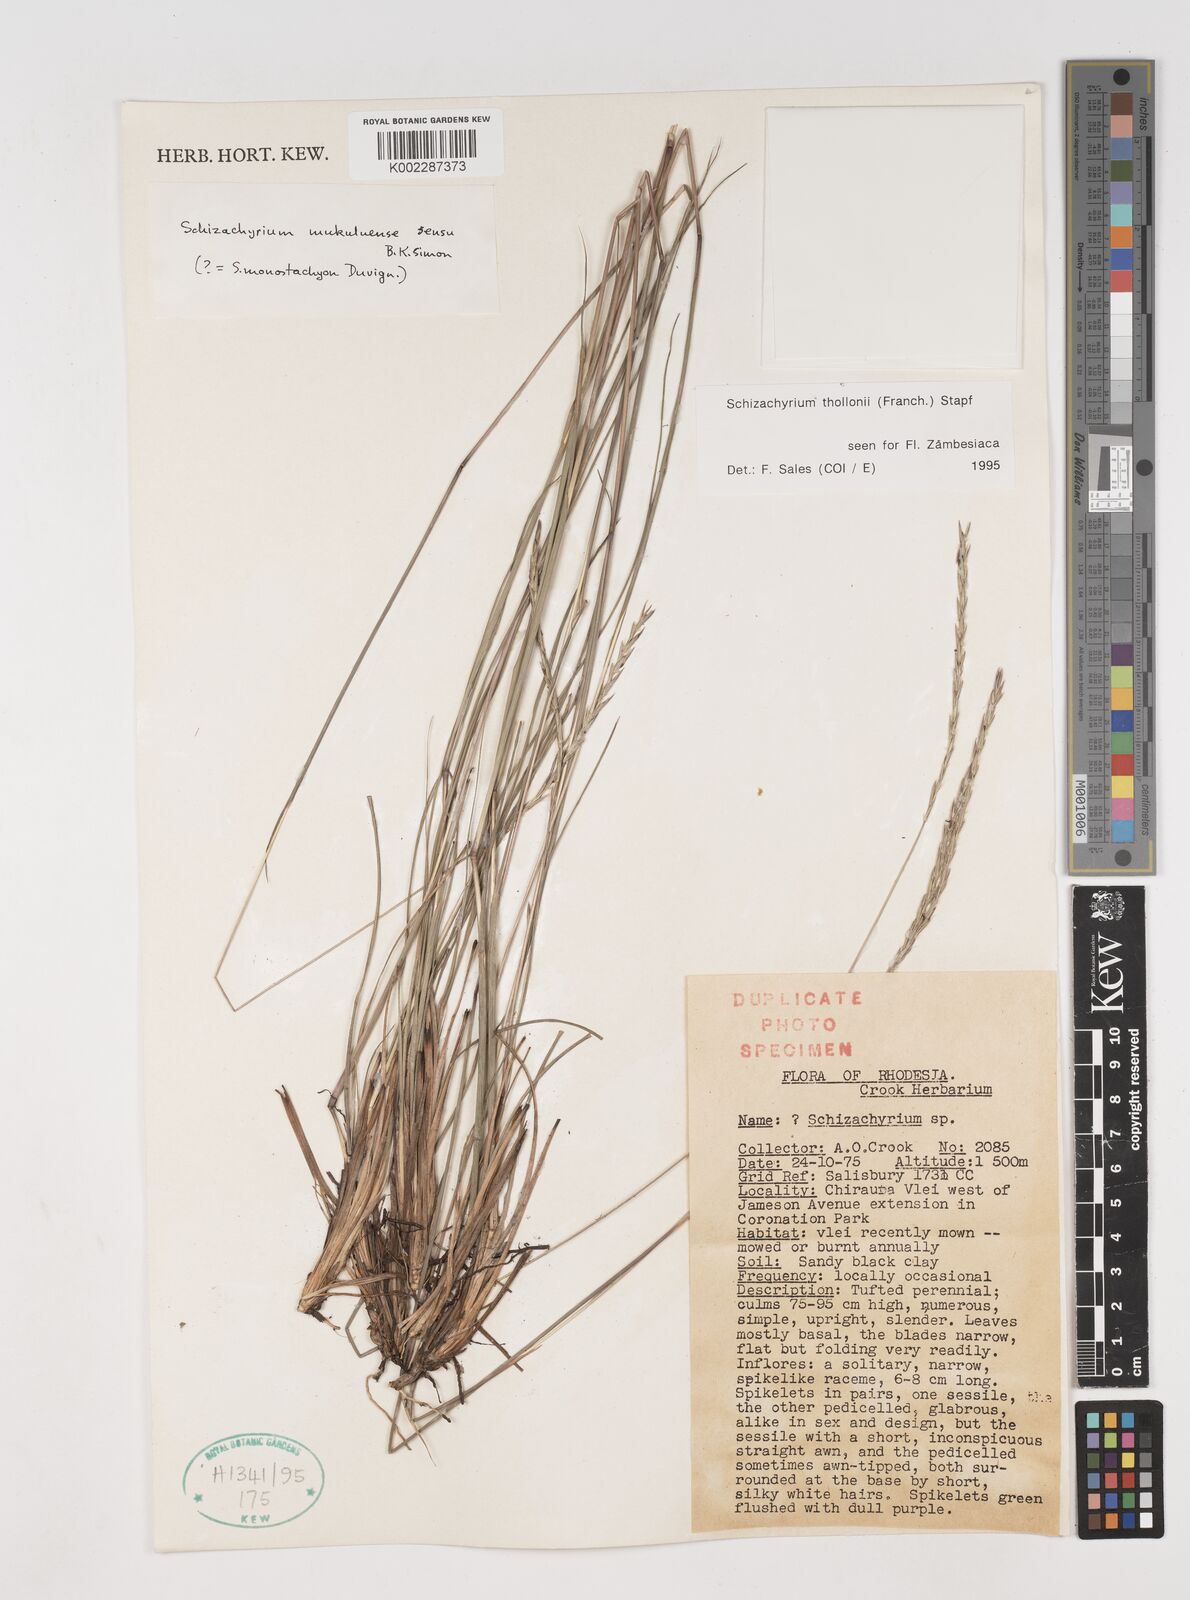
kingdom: Plantae
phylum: Tracheophyta
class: Liliopsida
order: Poales
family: Poaceae
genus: Schizachyrium
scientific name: Schizachyrium thollonii
